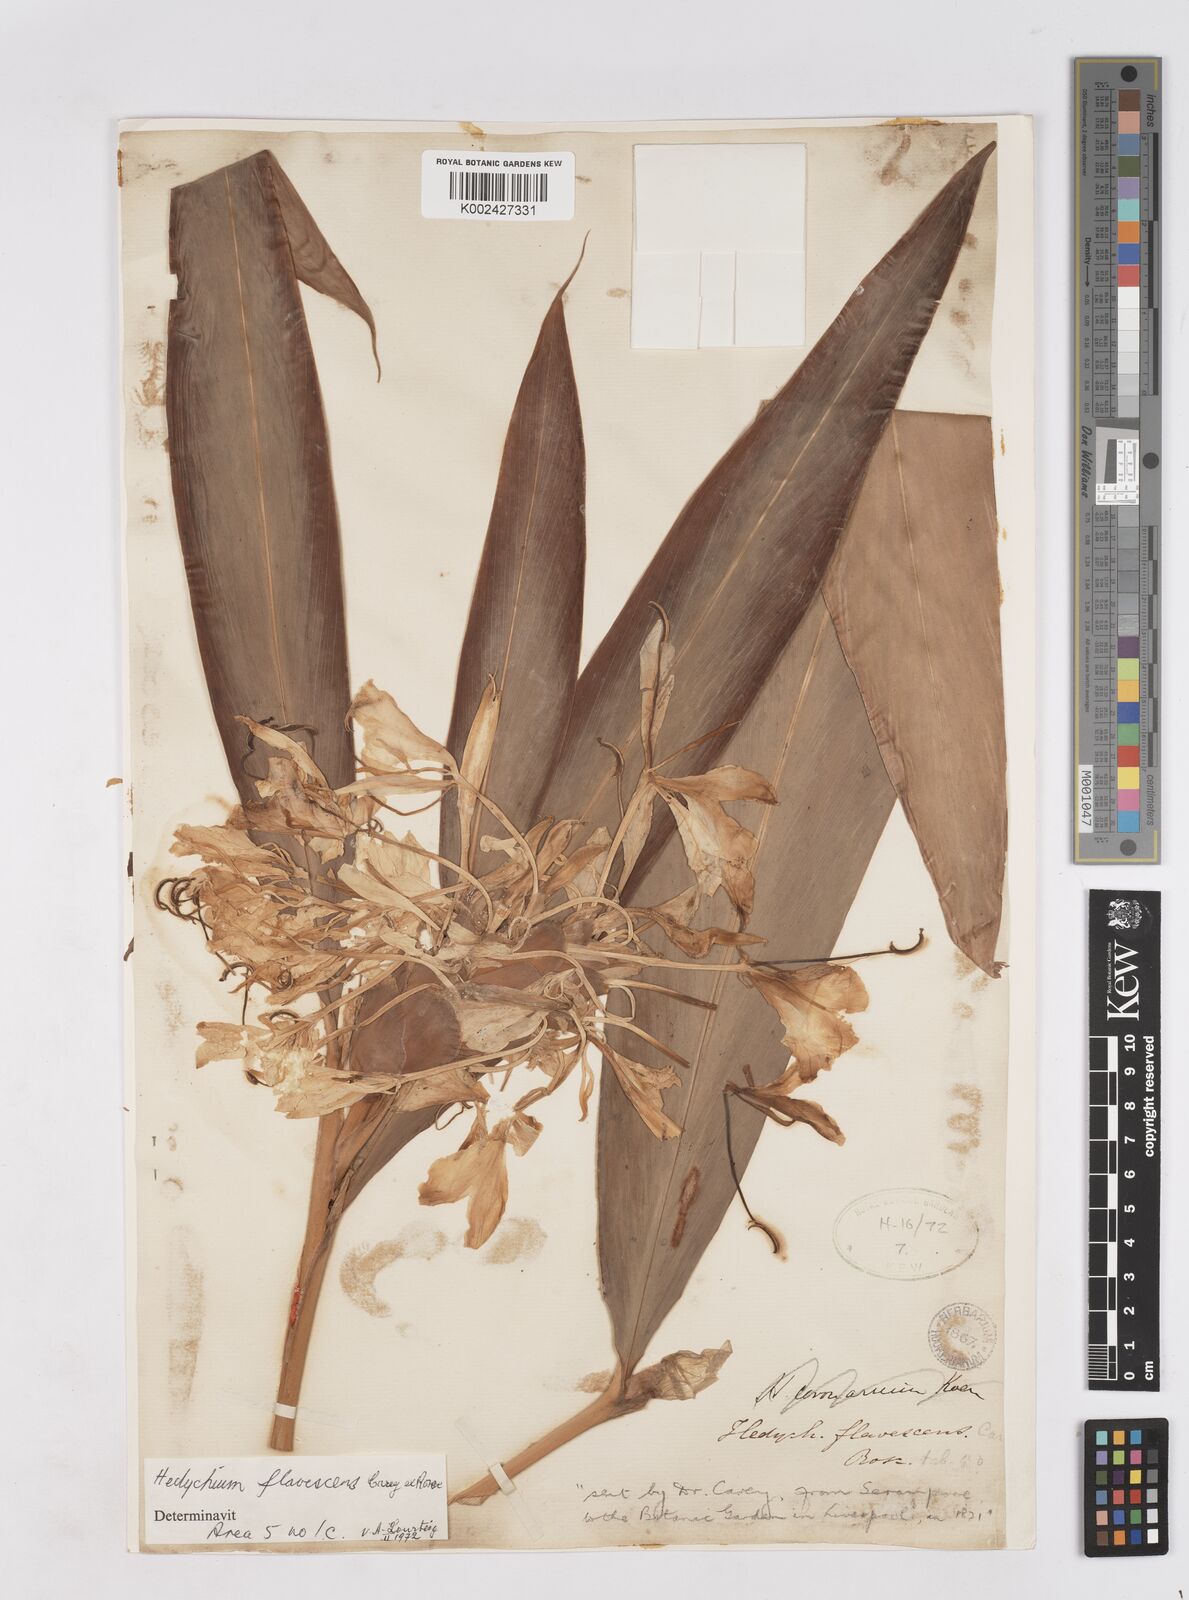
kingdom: Plantae
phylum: Tracheophyta
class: Liliopsida
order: Zingiberales
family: Zingiberaceae
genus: Hedychium
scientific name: Hedychium flavescens
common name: Yellow ginger
